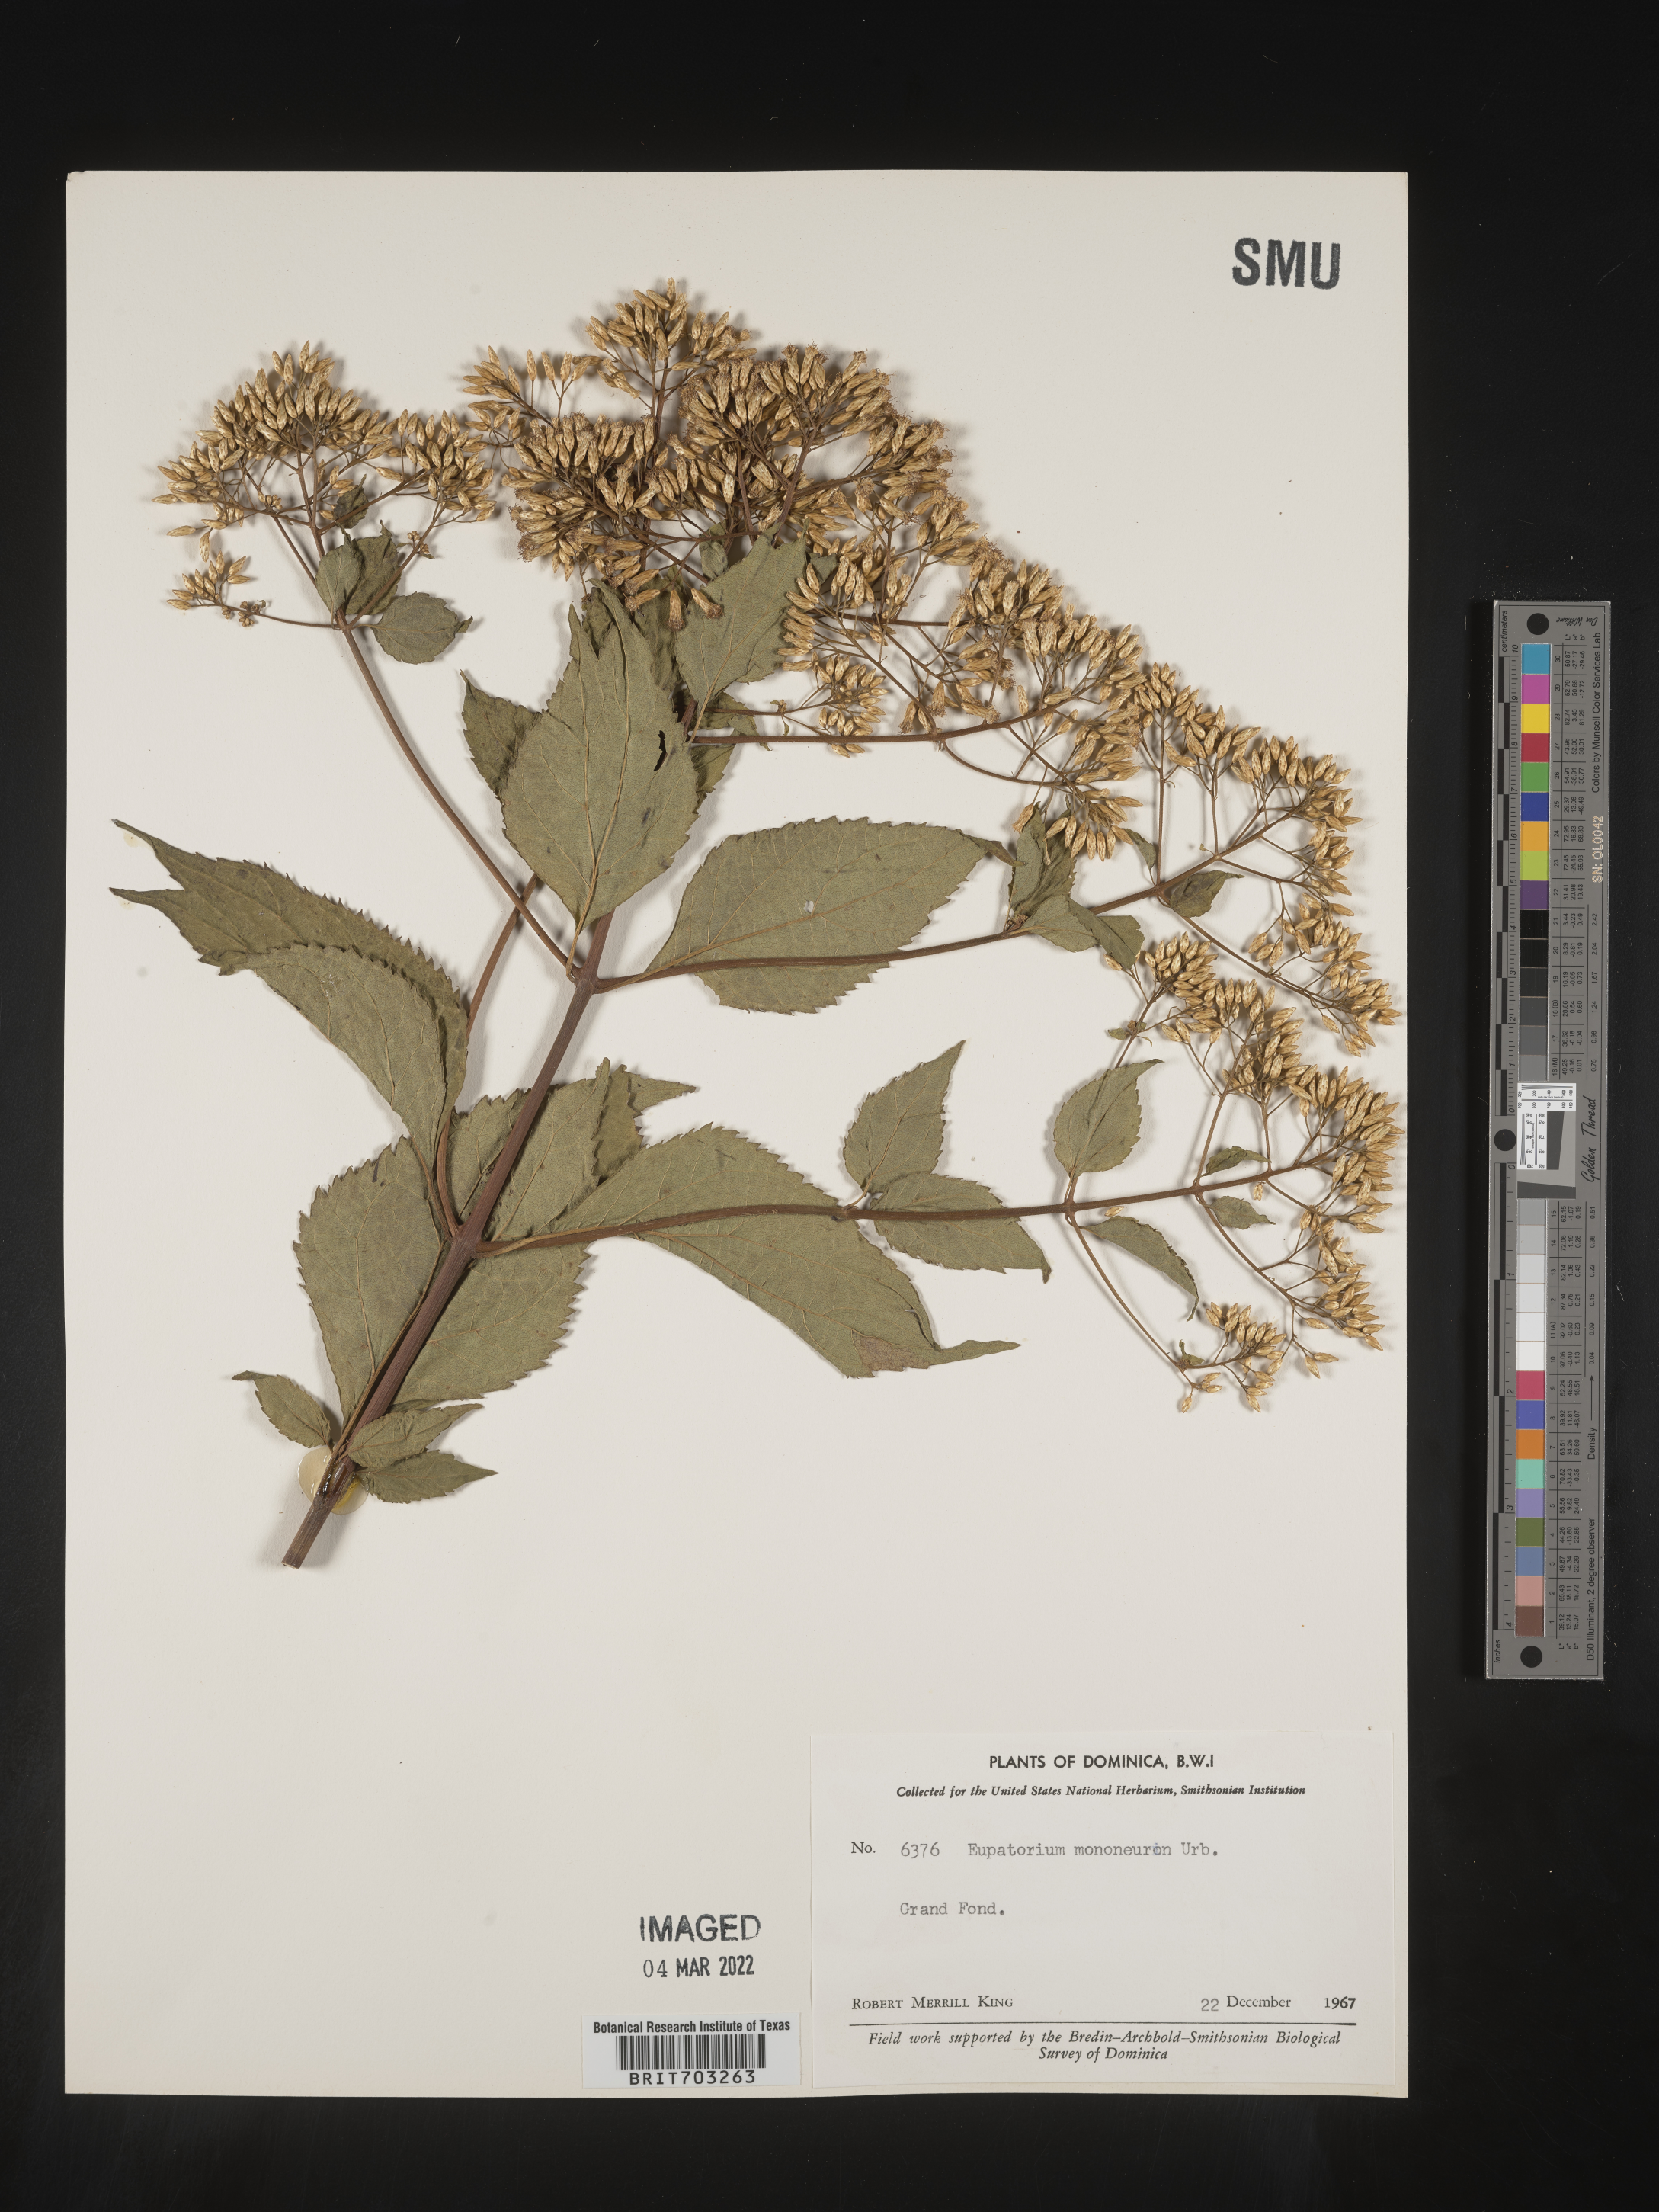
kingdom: Plantae
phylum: Tracheophyta
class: Magnoliopsida
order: Asterales
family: Asteraceae
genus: Eupatorium
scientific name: Eupatorium
